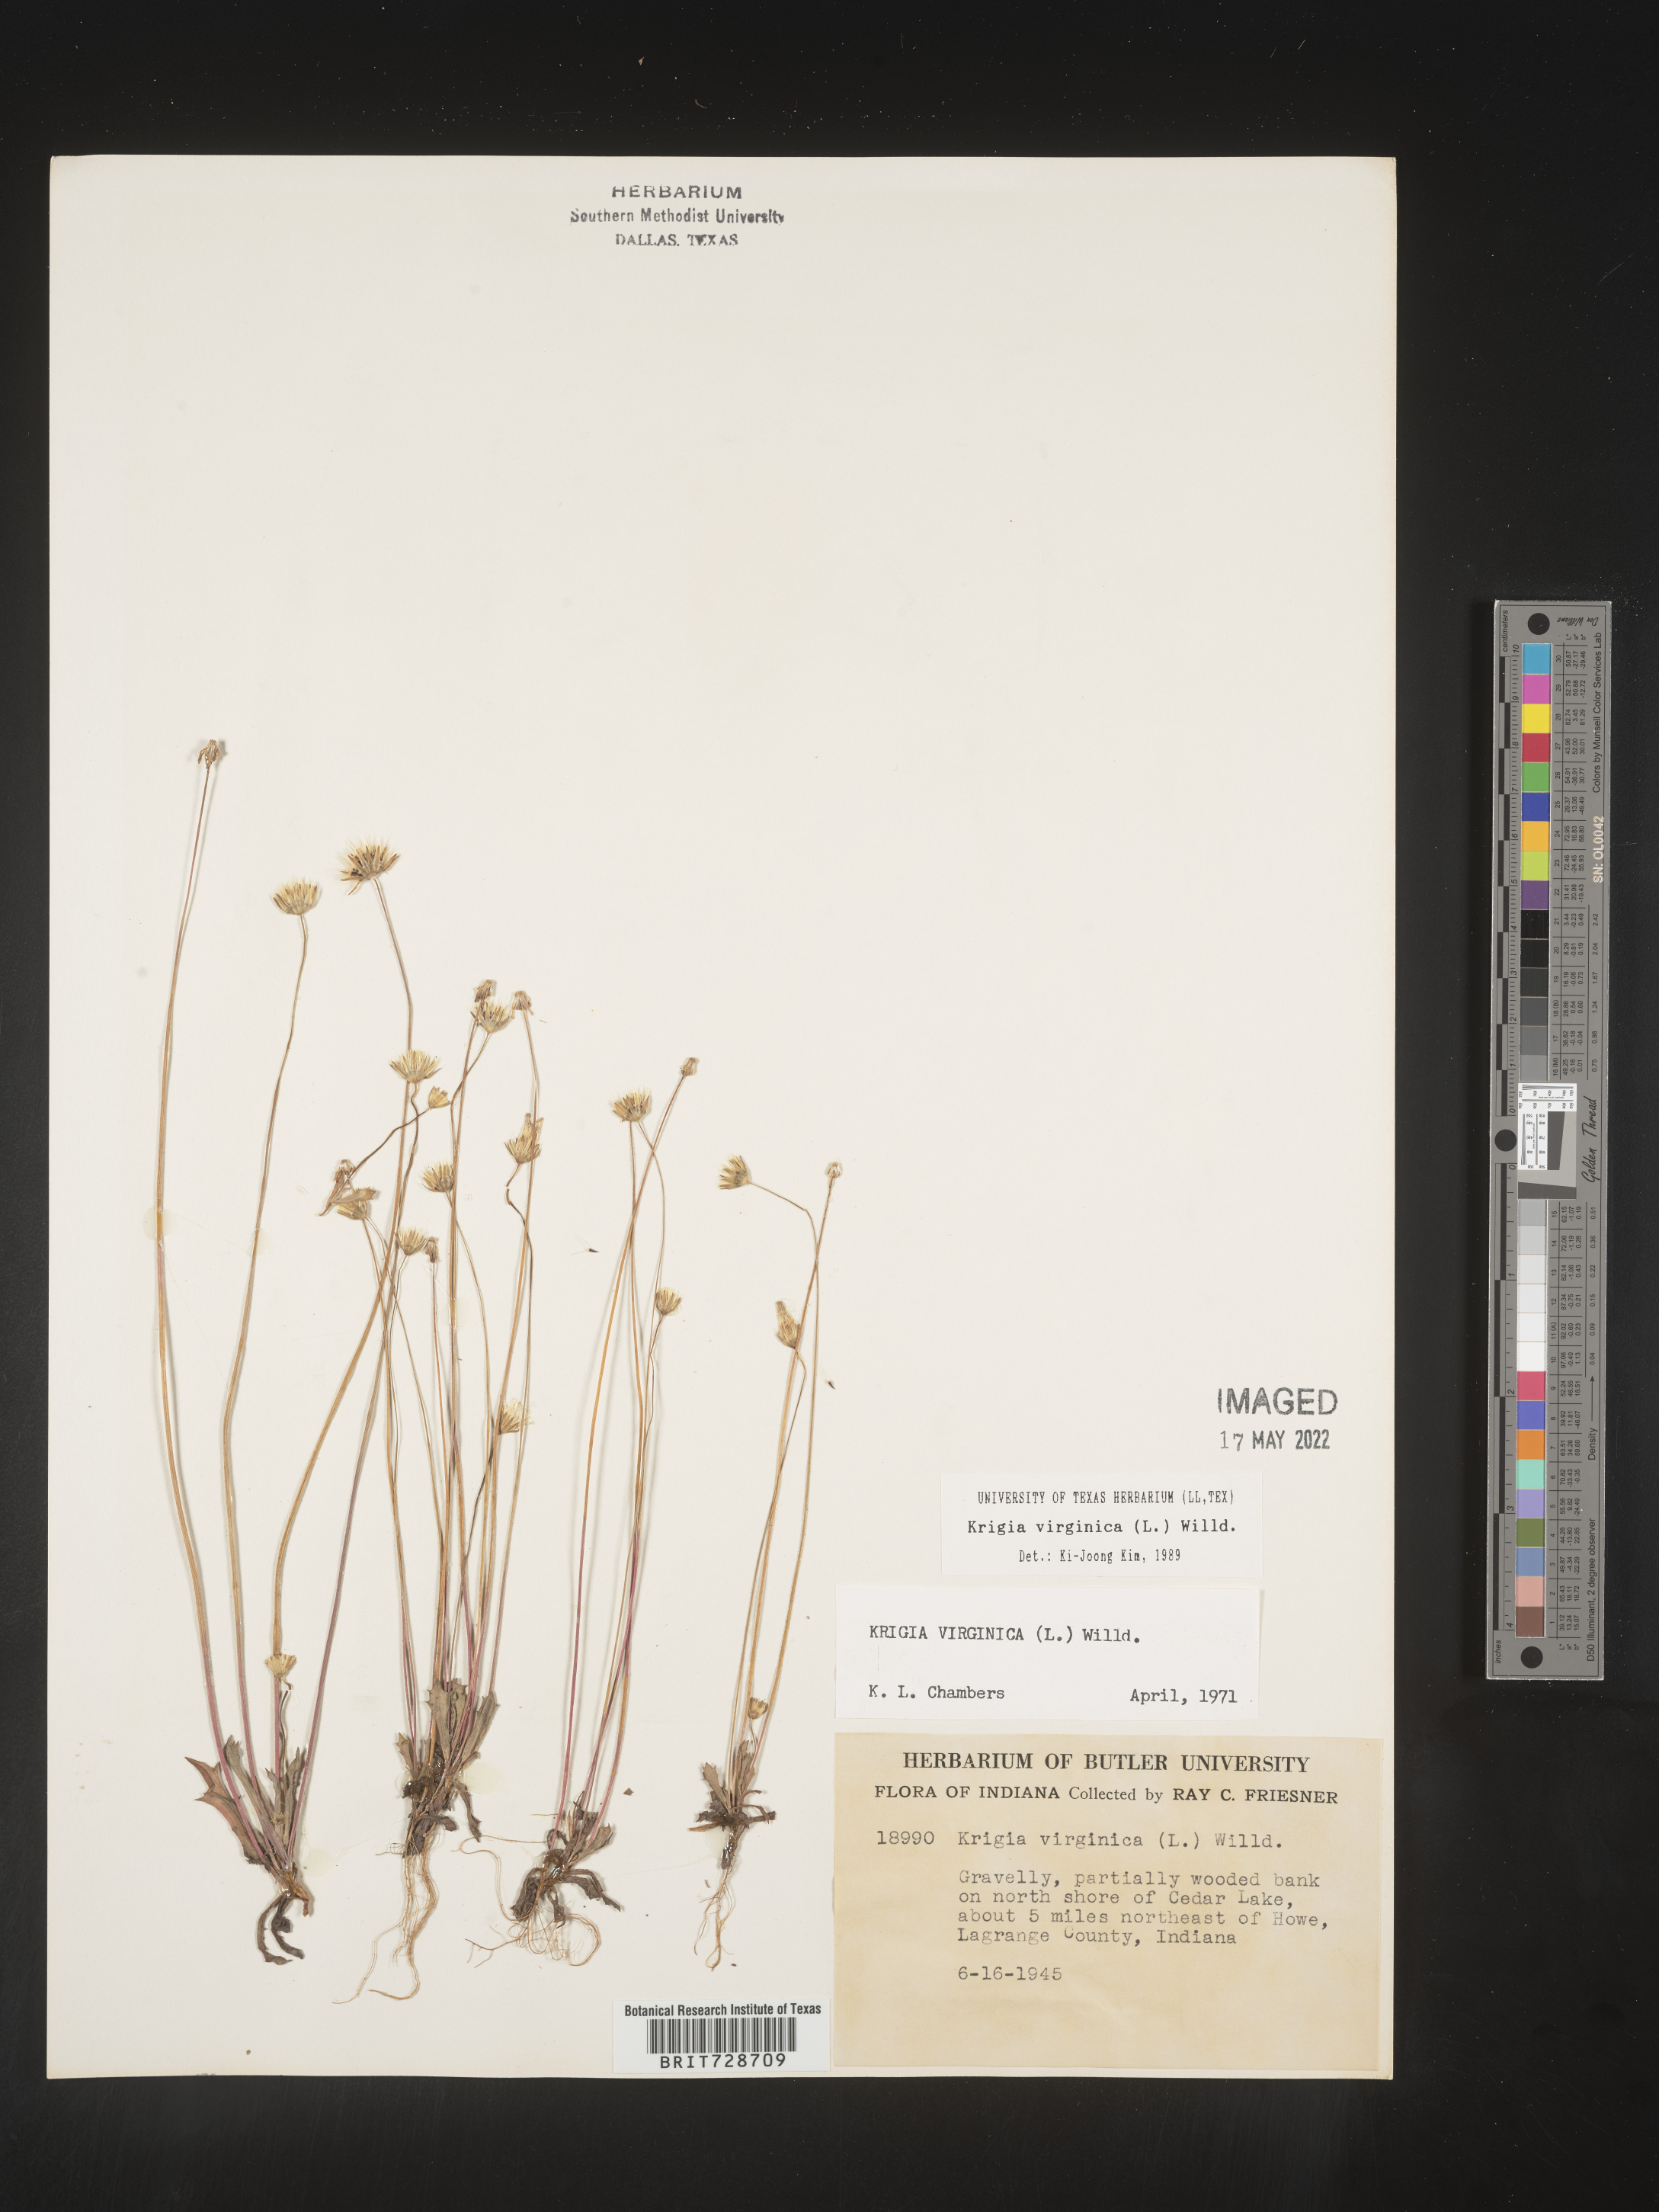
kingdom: Plantae
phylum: Tracheophyta
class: Magnoliopsida
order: Asterales
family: Asteraceae
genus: Krigia
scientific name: Krigia virginica
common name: Virginia dwarf-dandelion
